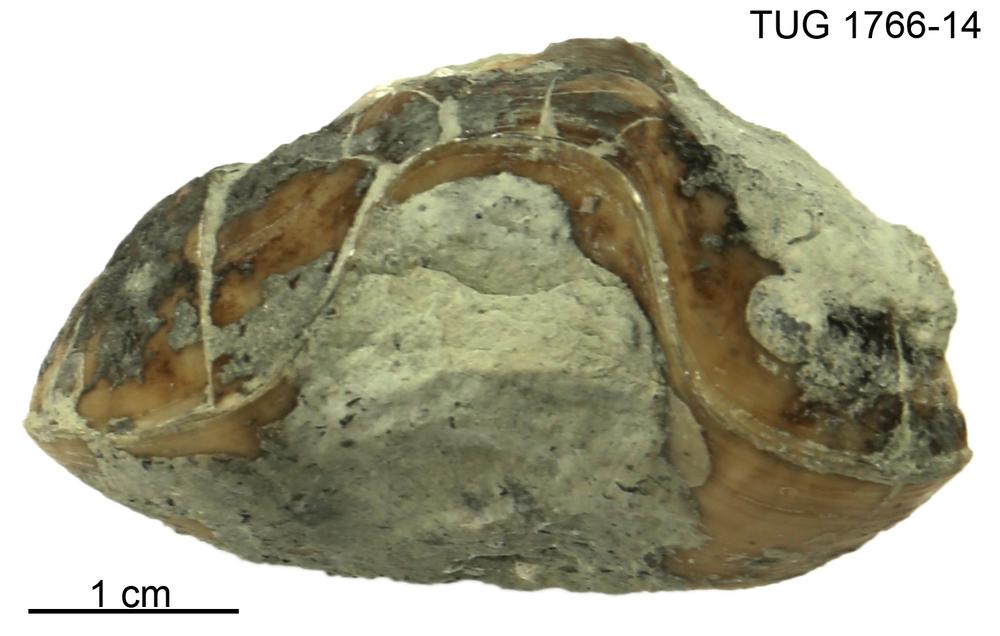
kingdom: Animalia
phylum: Brachiopoda
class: Rhynchonellata
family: Porambonitidae
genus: Porambonites
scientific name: Porambonites
